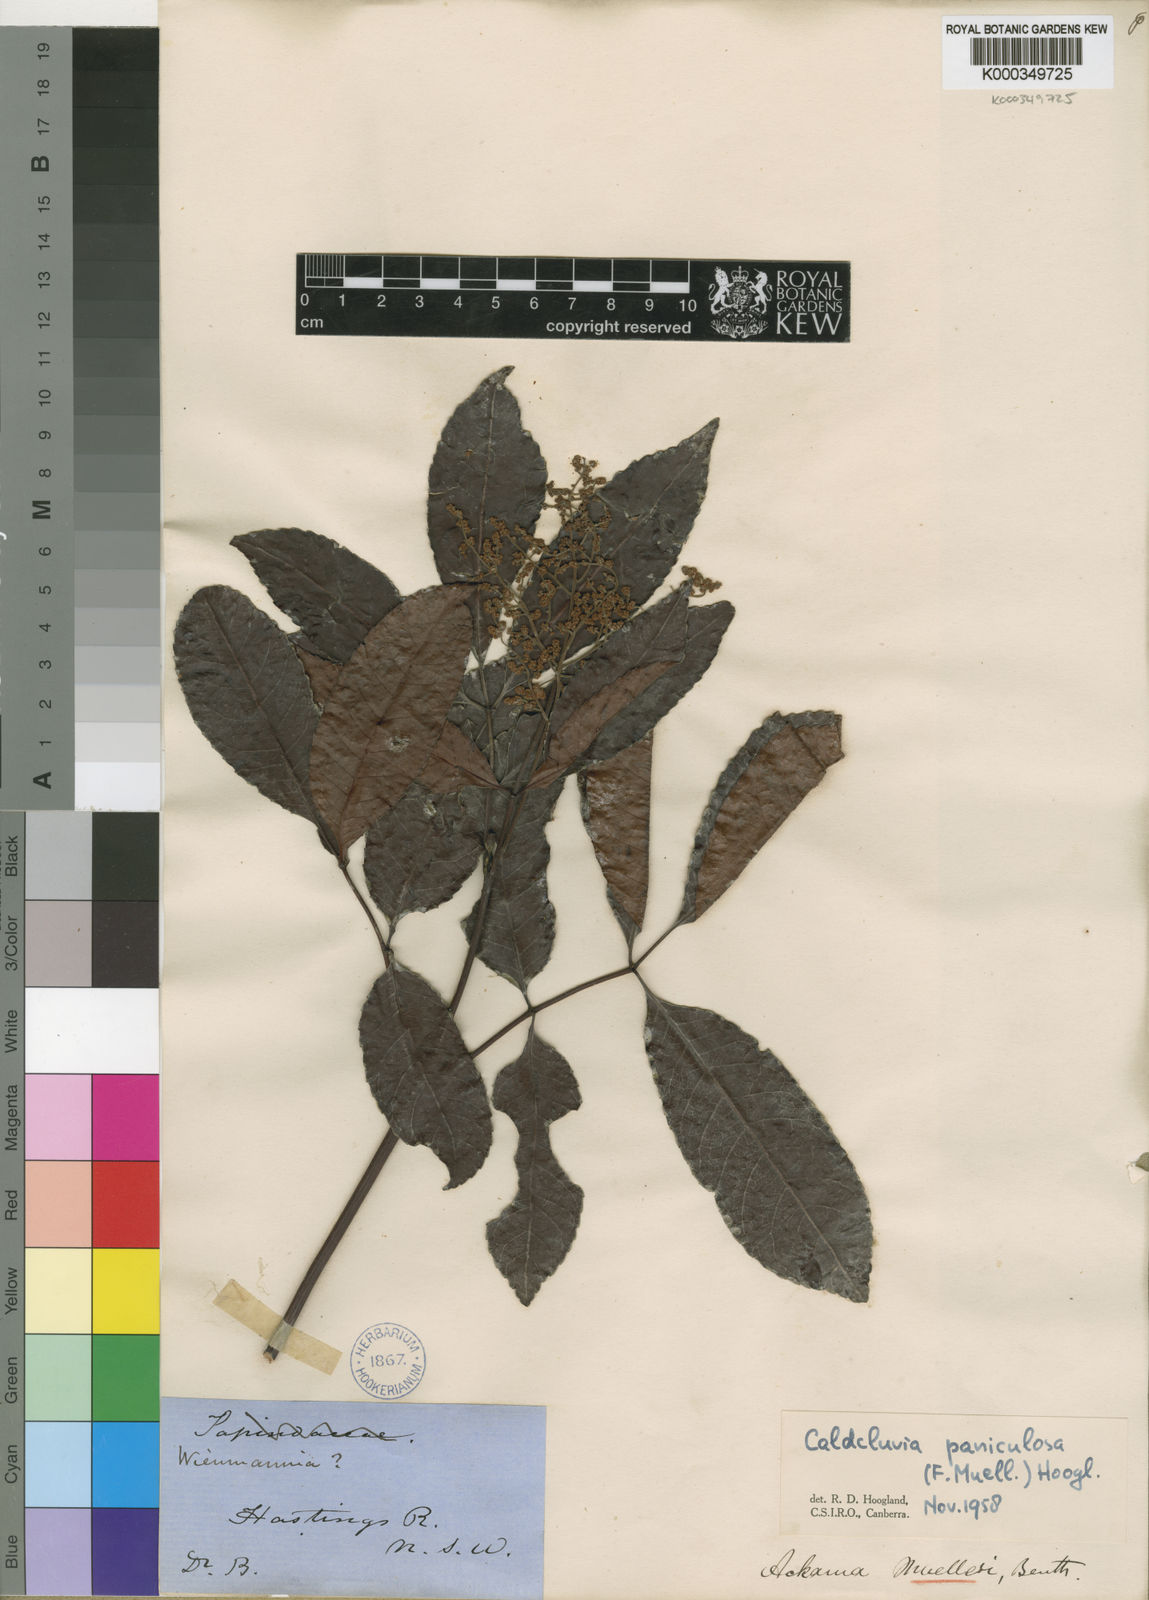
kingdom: Plantae
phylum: Tracheophyta
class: Magnoliopsida
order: Oxalidales
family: Cunoniaceae
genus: Ackama
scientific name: Ackama paniculosa
